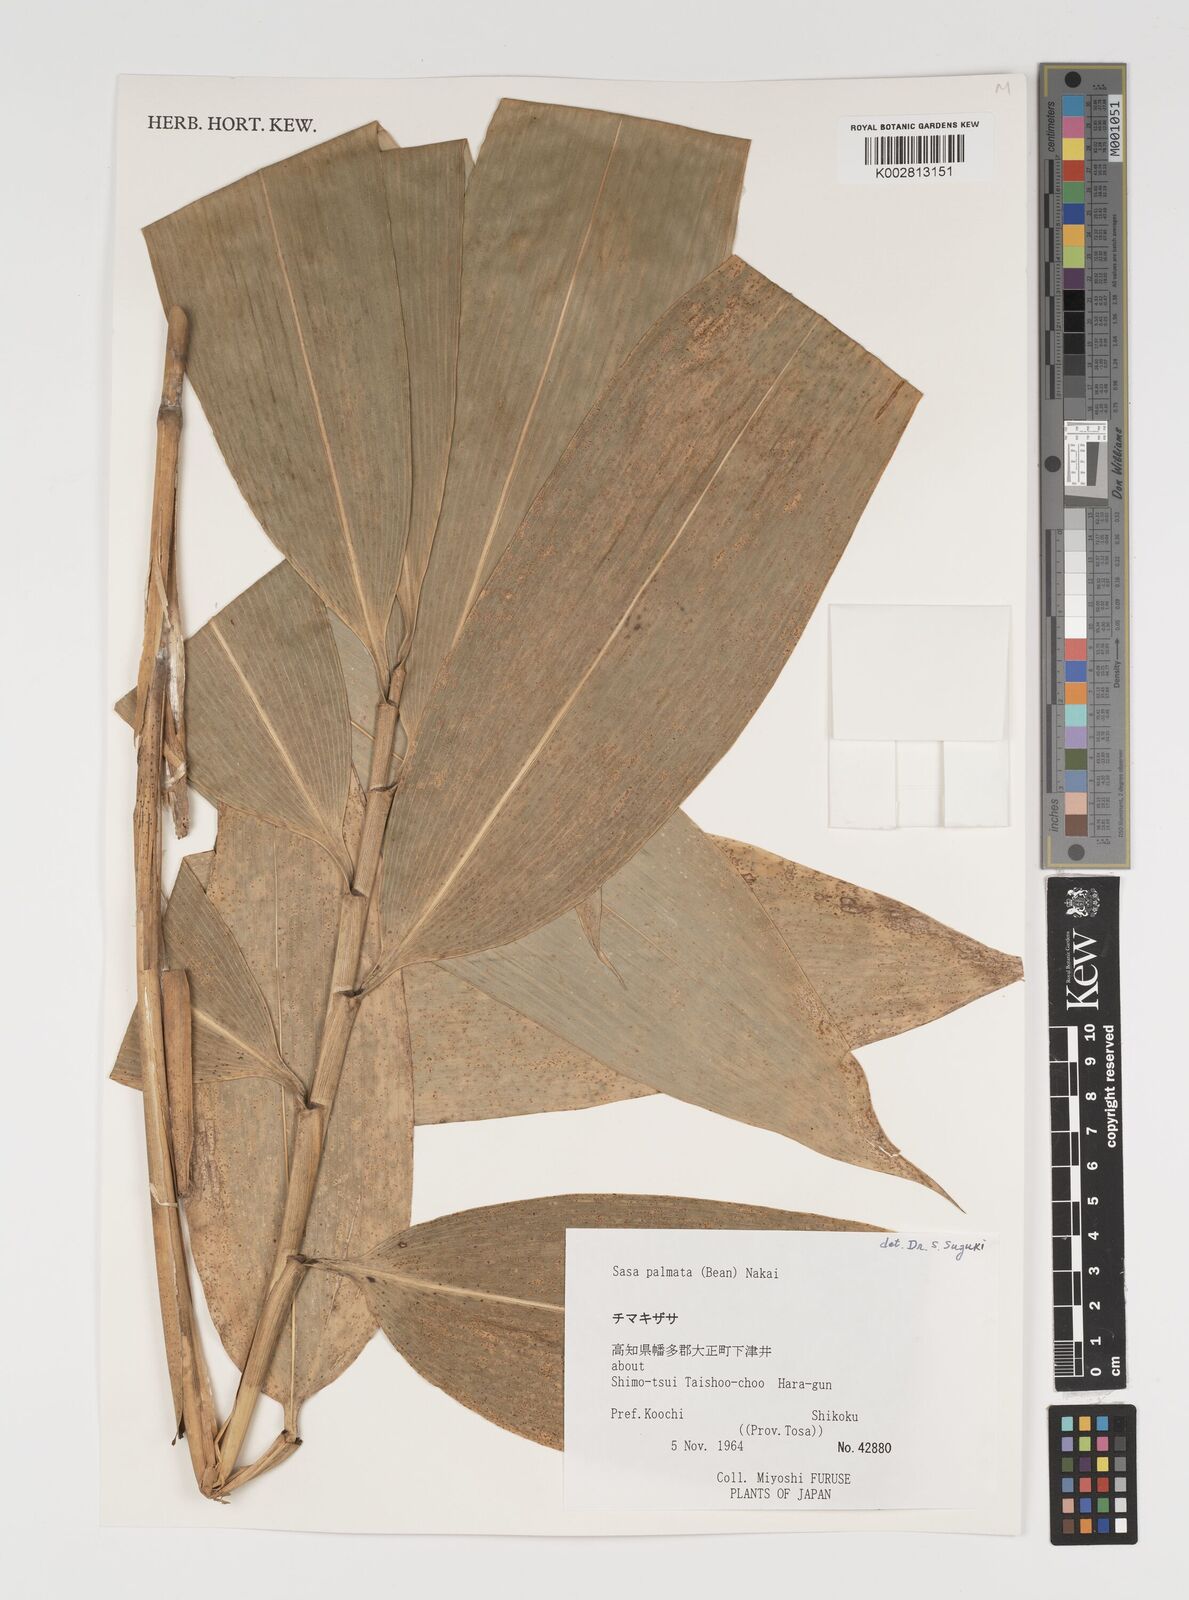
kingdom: Plantae
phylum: Tracheophyta
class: Liliopsida
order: Poales
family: Poaceae
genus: Sasa
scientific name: Sasa palmata
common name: Broad-leaved bamboo
